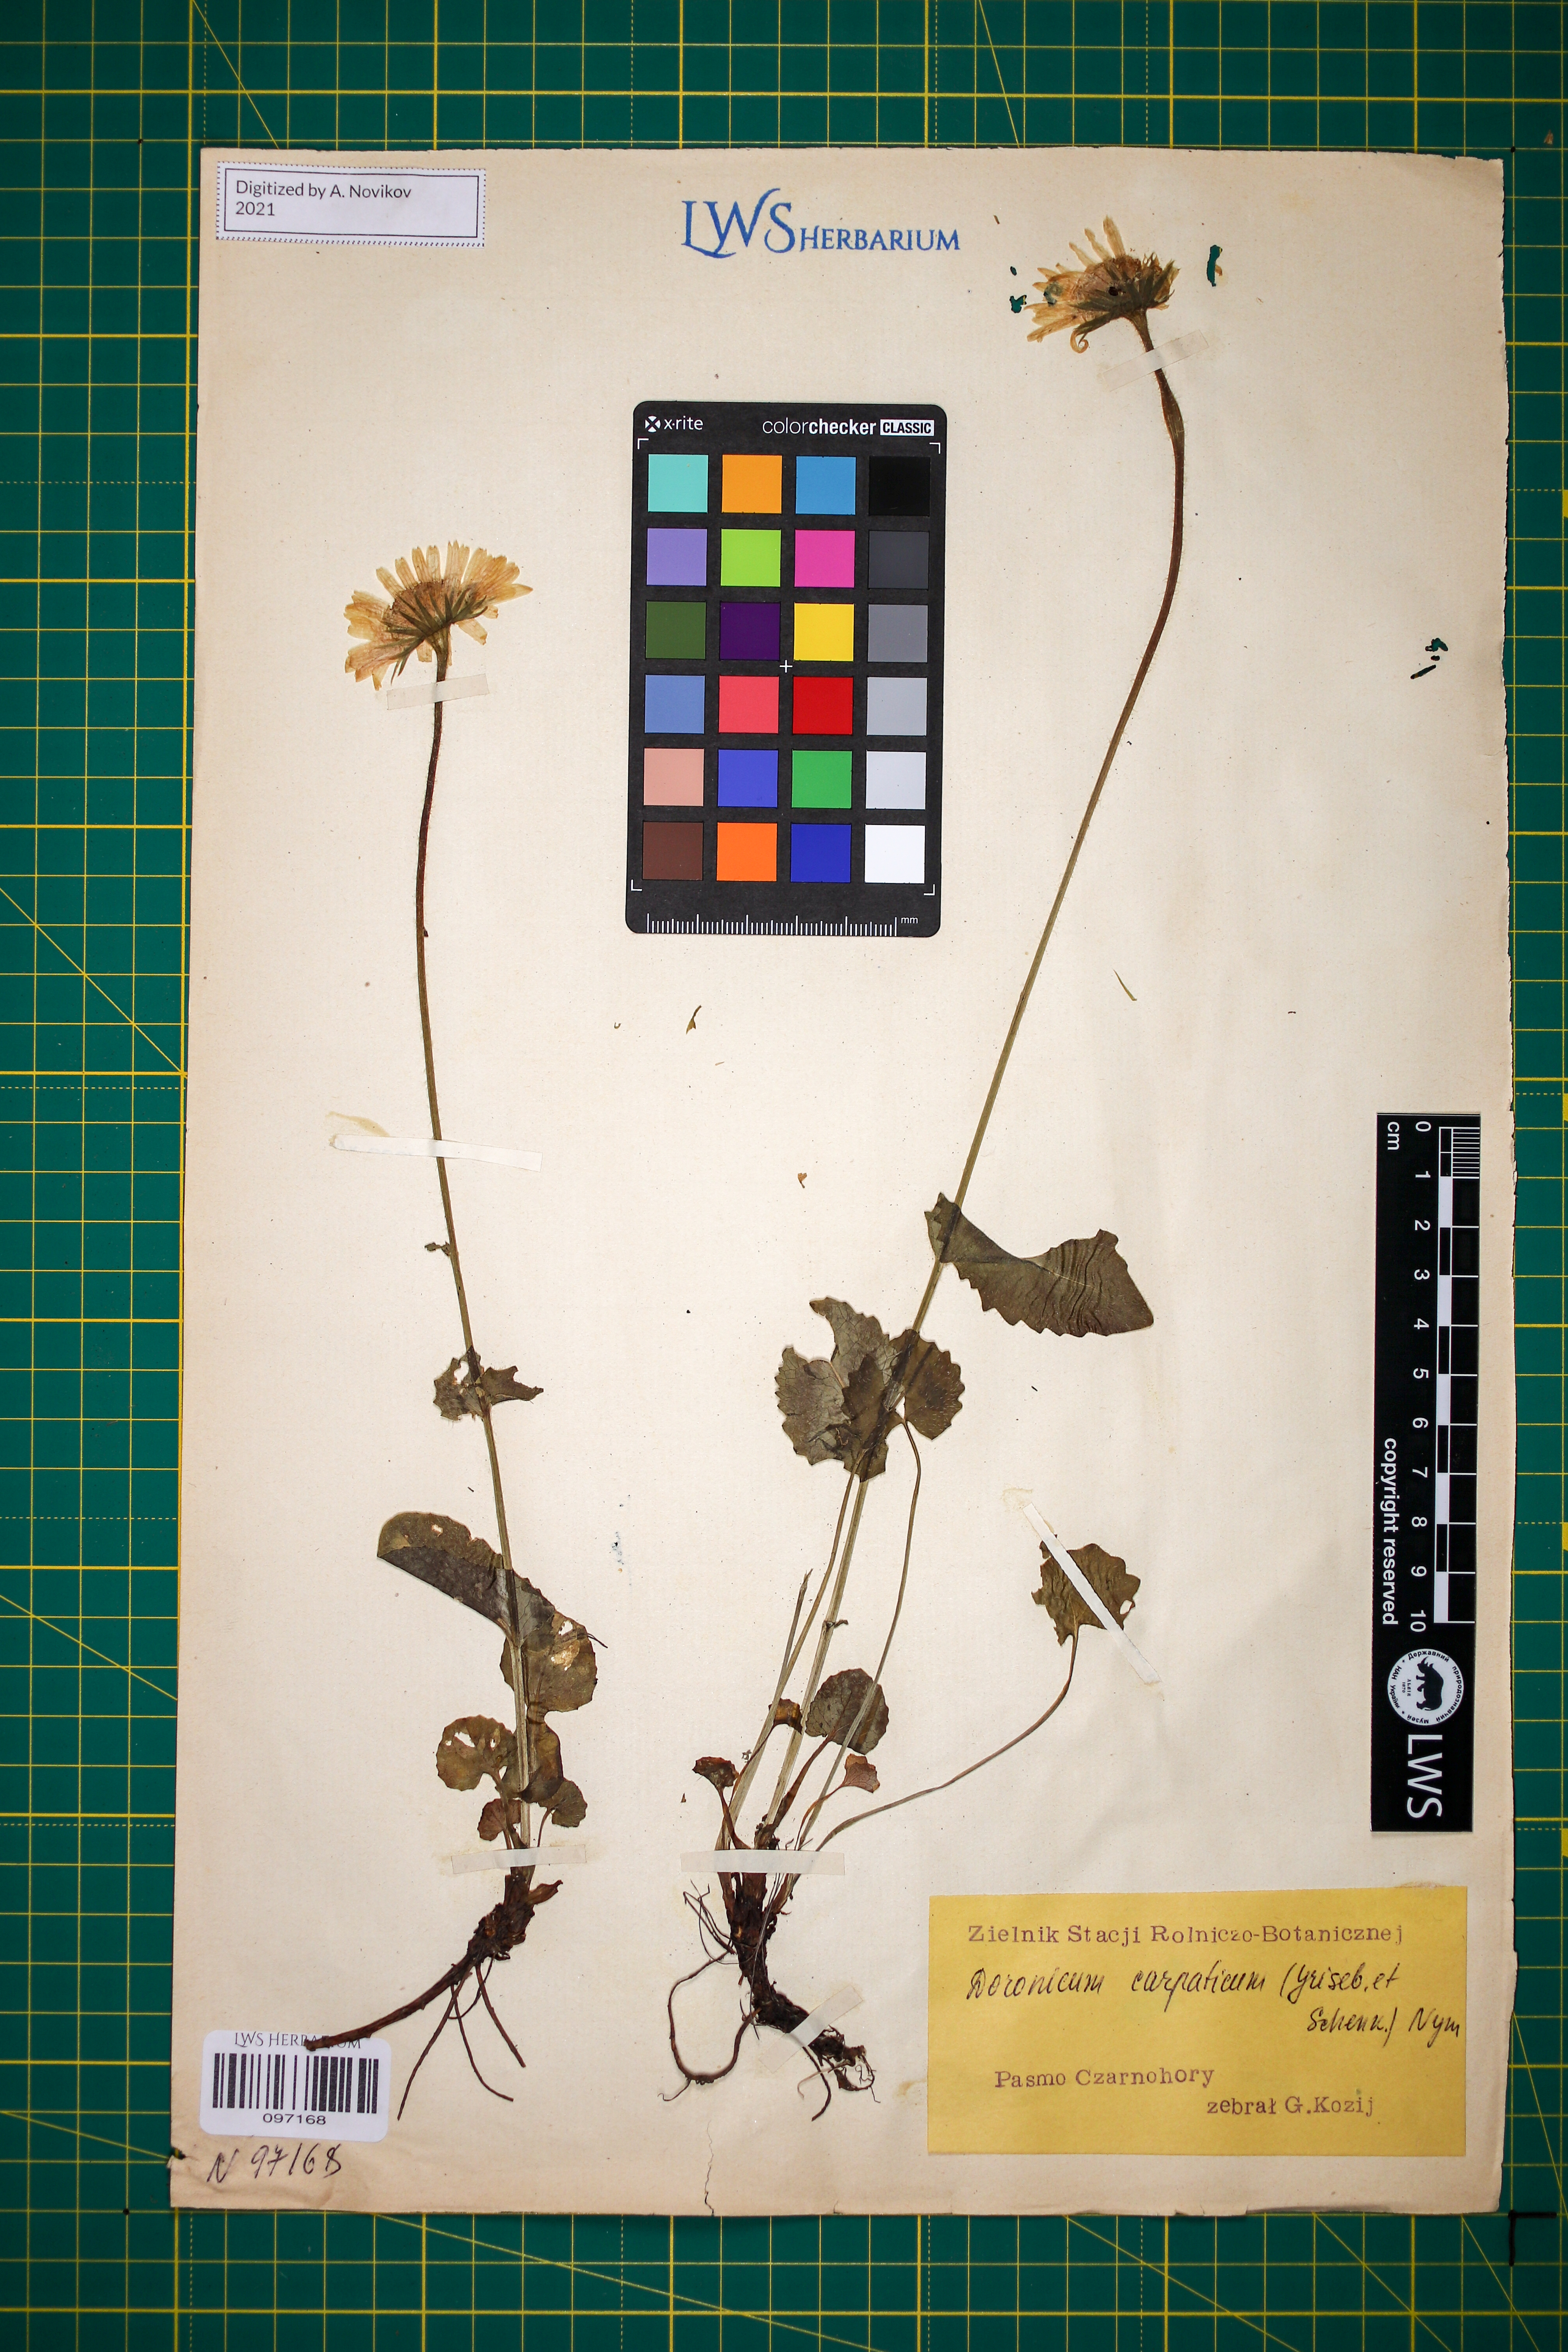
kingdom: Plantae
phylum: Tracheophyta
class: Magnoliopsida
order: Asterales
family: Asteraceae
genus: Doronicum
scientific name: Doronicum carpaticum
